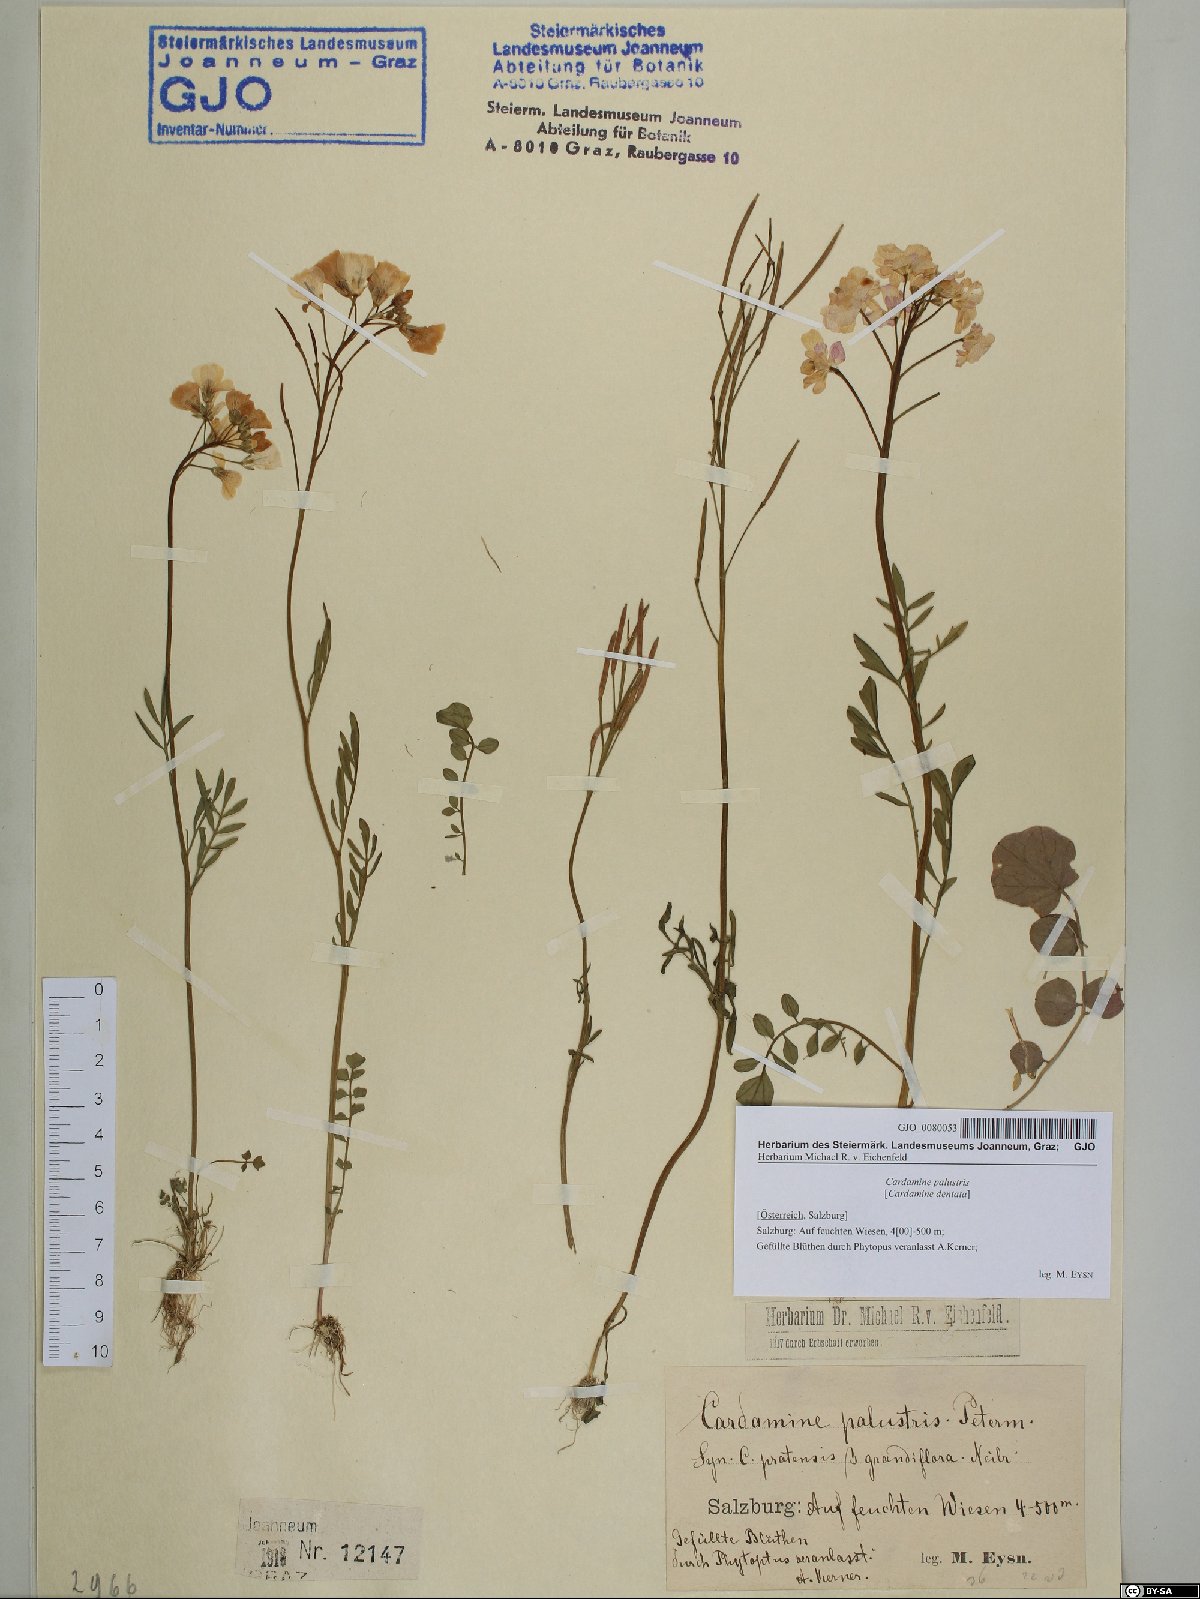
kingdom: Plantae
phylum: Tracheophyta
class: Magnoliopsida
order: Brassicales
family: Brassicaceae
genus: Cardamine
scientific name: Cardamine pratensis
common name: Cuckoo flower
